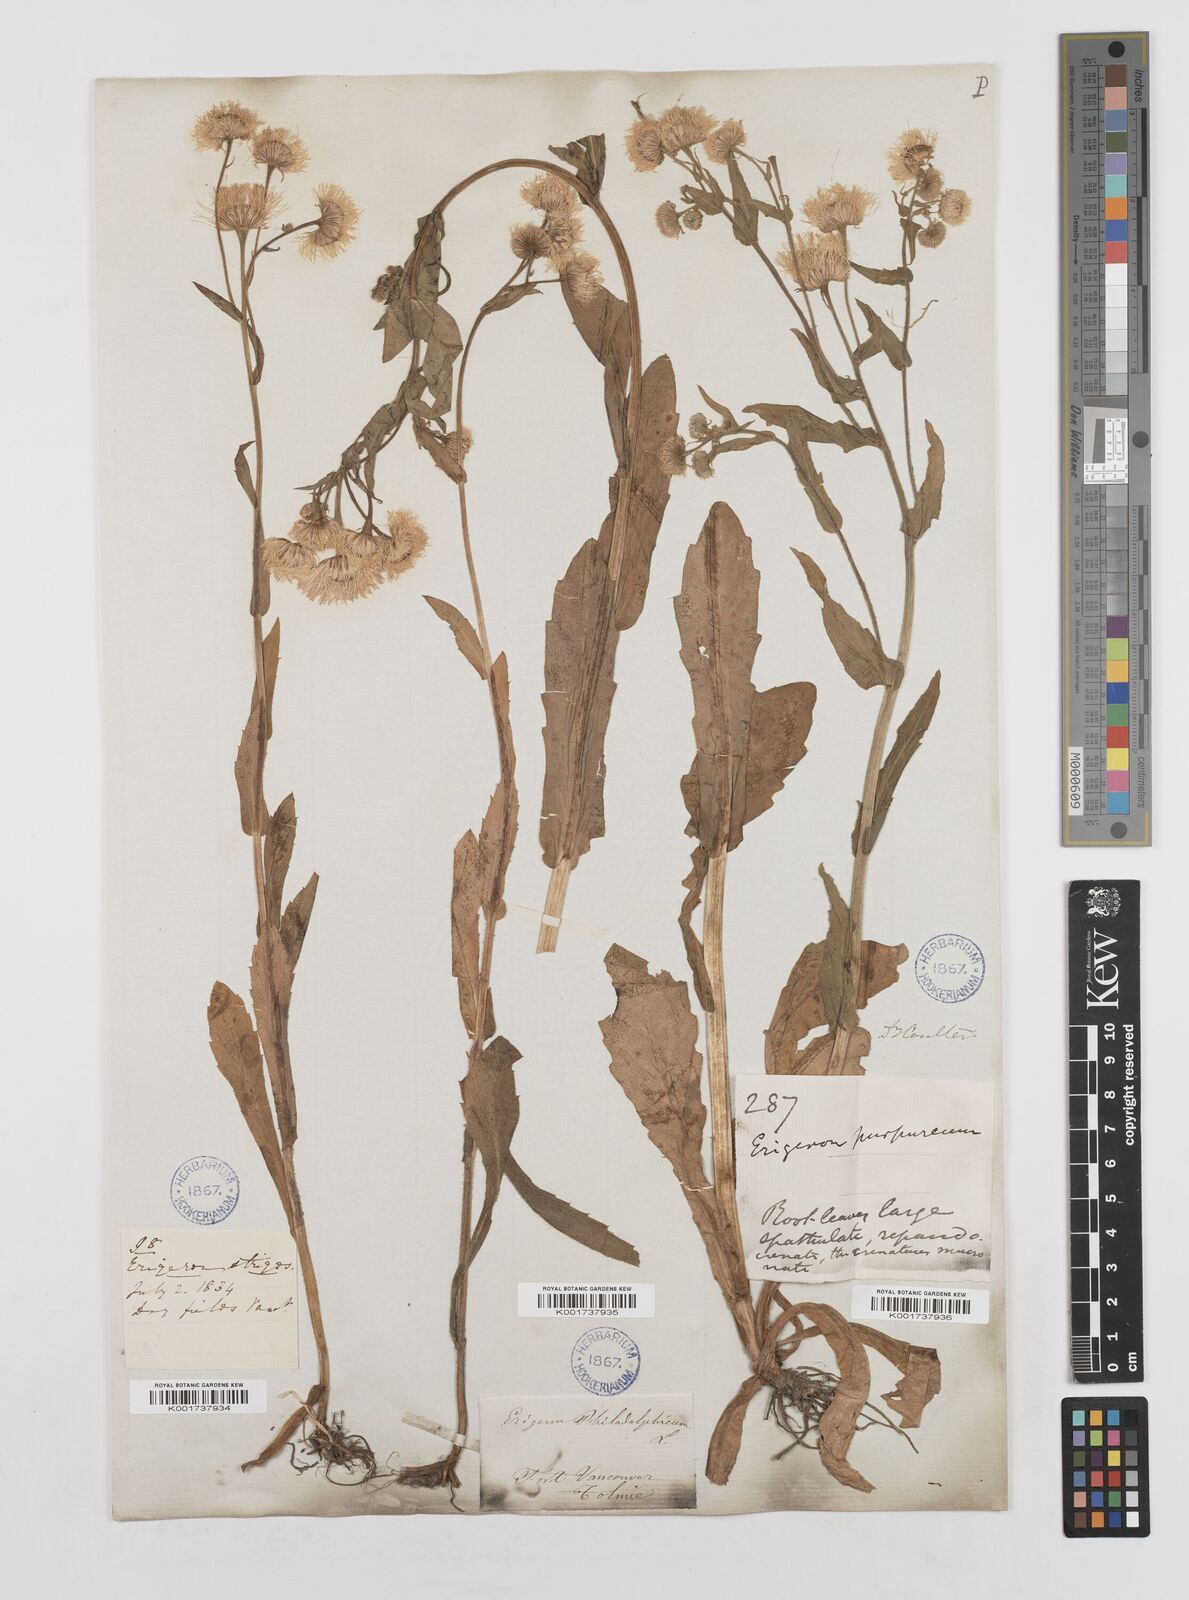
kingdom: Plantae
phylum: Tracheophyta
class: Magnoliopsida
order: Asterales
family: Asteraceae
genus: Erigeron
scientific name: Erigeron philadelphicus
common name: Robin's-plantain
